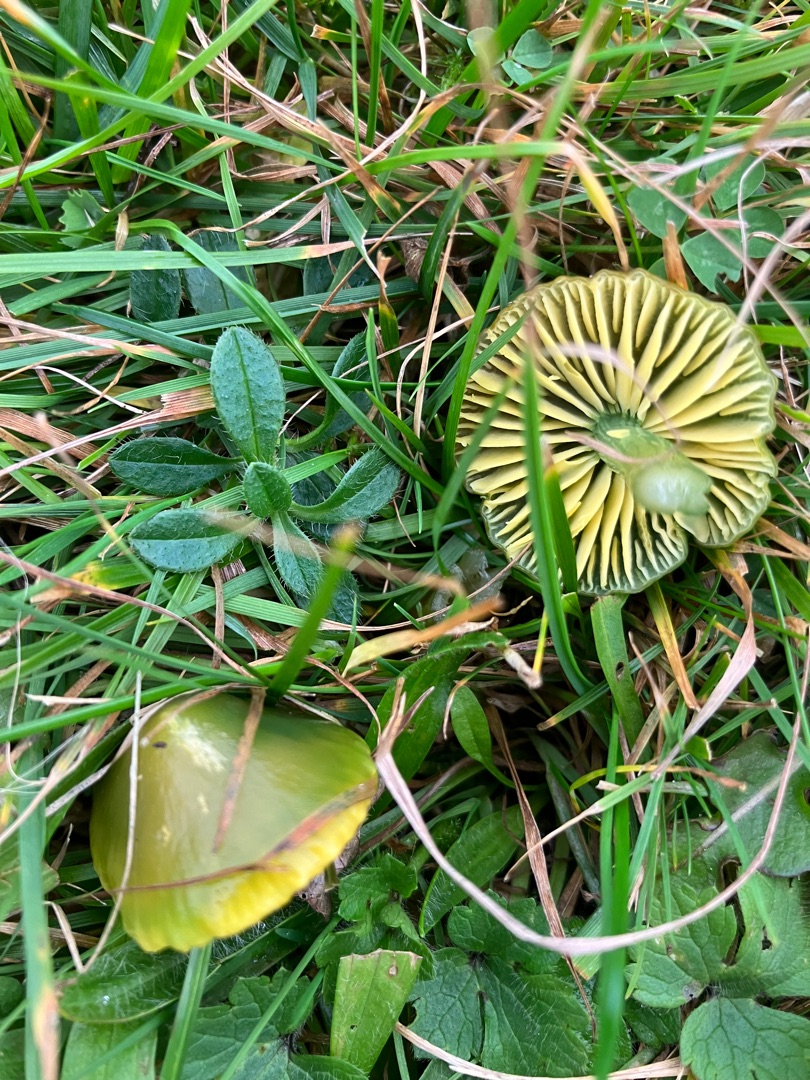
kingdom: Fungi
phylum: Basidiomycota
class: Agaricomycetes
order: Agaricales
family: Hygrophoraceae
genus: Gliophorus
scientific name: Gliophorus psittacinus
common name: Papegøje-vokshat
